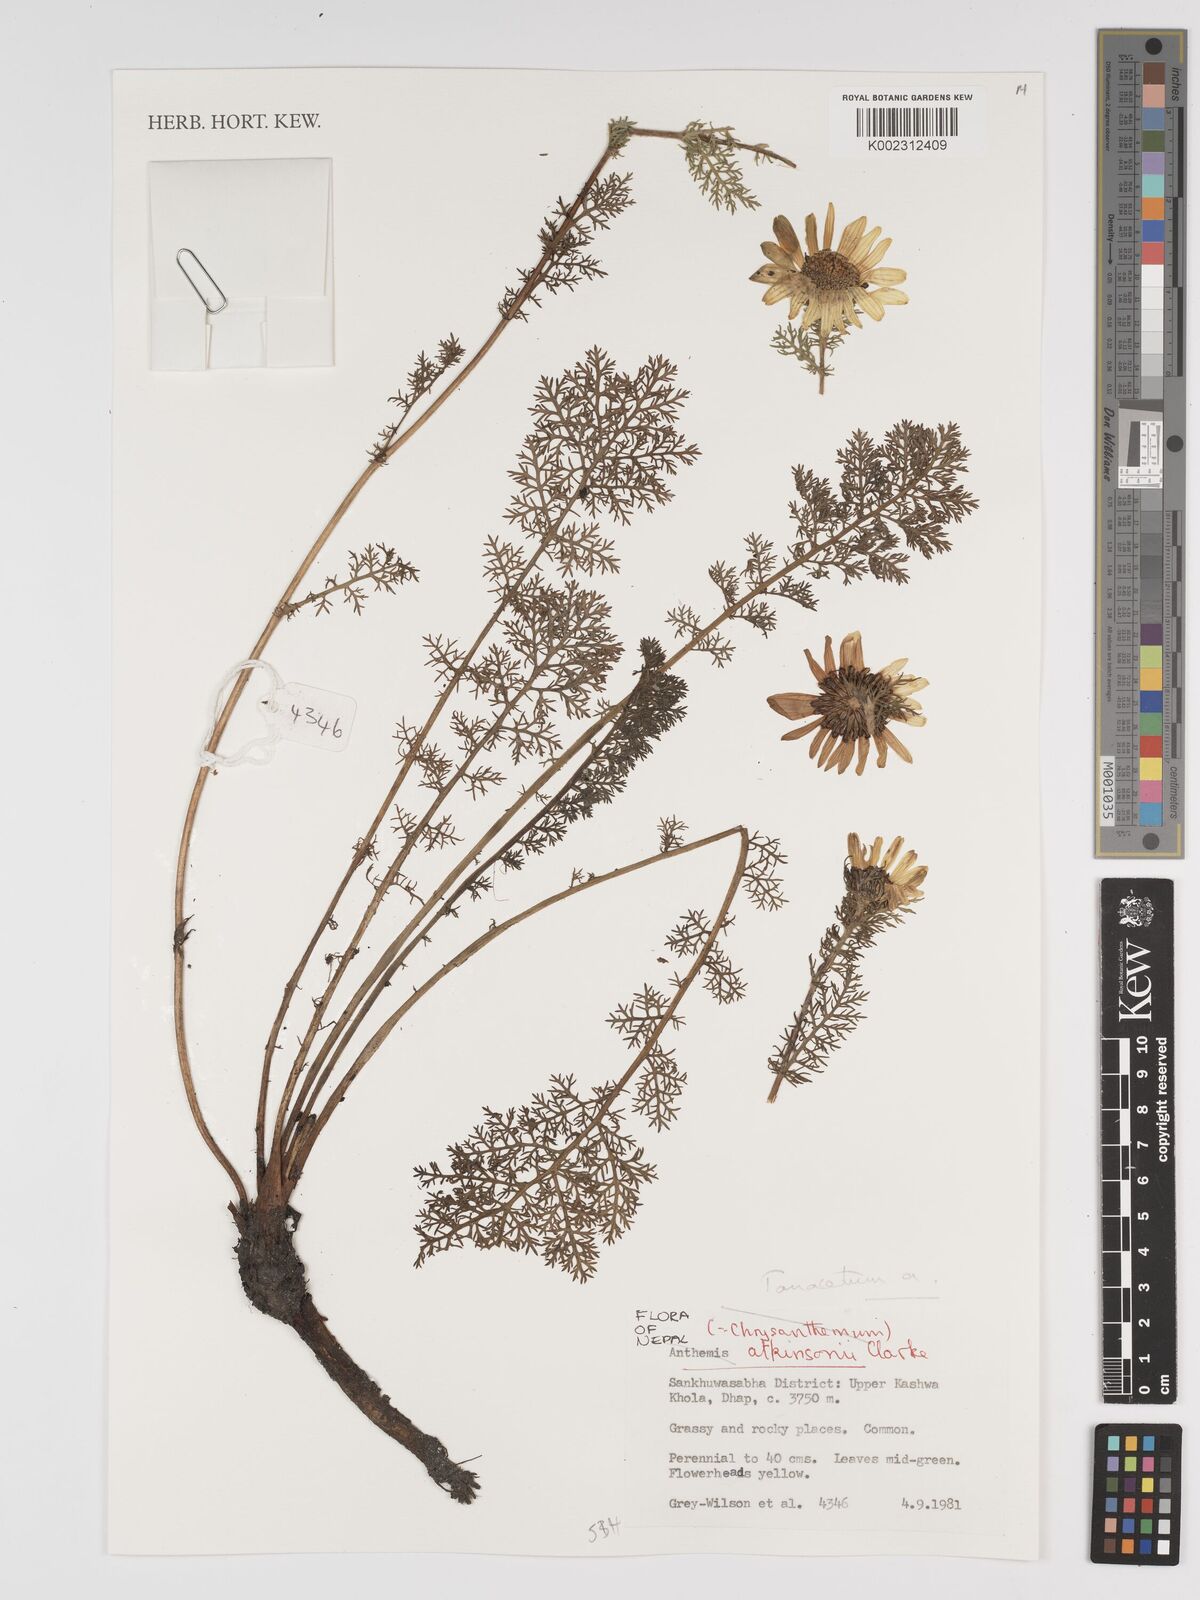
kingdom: Plantae
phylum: Tracheophyta
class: Magnoliopsida
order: Asterales
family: Asteraceae
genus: Tanacetum
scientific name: Tanacetum atkinsonii
